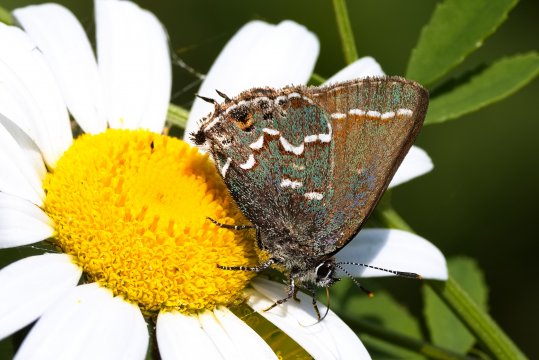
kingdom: Animalia
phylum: Arthropoda
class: Insecta
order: Lepidoptera
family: Lycaenidae
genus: Mitoura
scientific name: Mitoura gryneus
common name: Juniper Hairstreak
